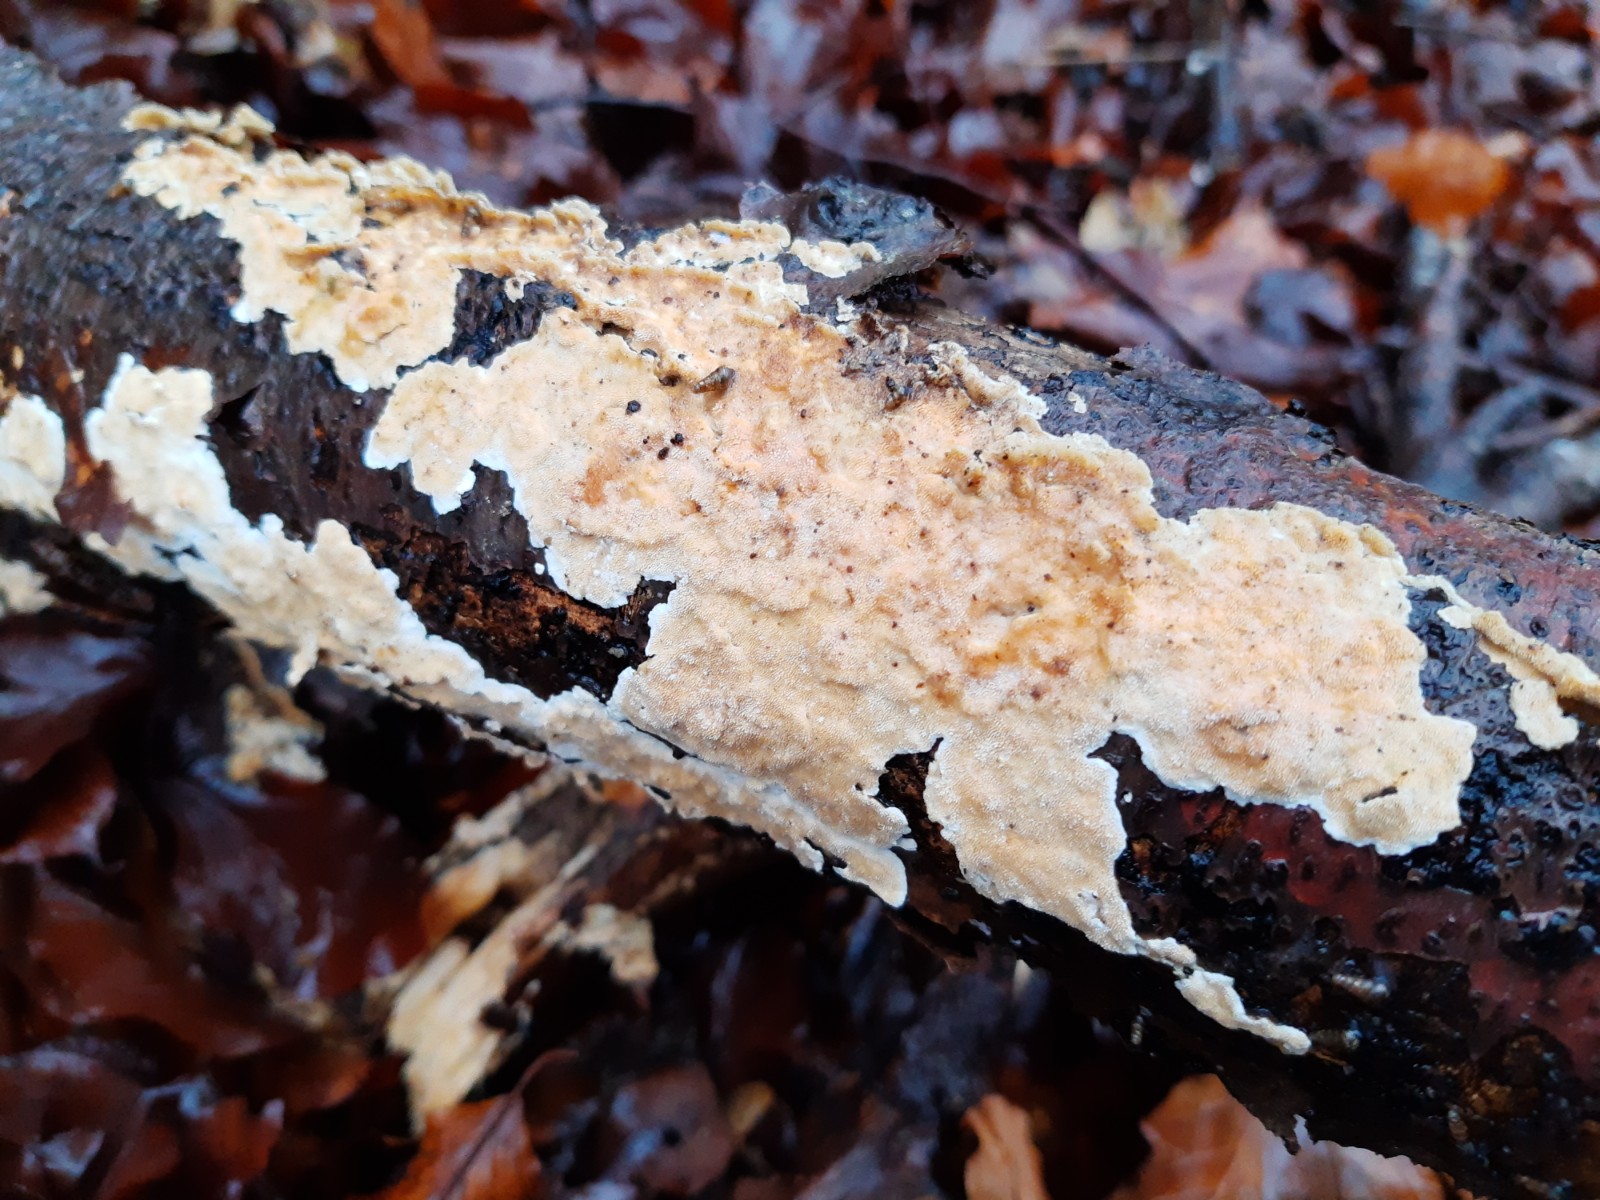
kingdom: Fungi
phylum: Basidiomycota
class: Agaricomycetes
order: Polyporales
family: Steccherinaceae
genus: Steccherinum
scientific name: Steccherinum ochraceum
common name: almindelig skønpig
